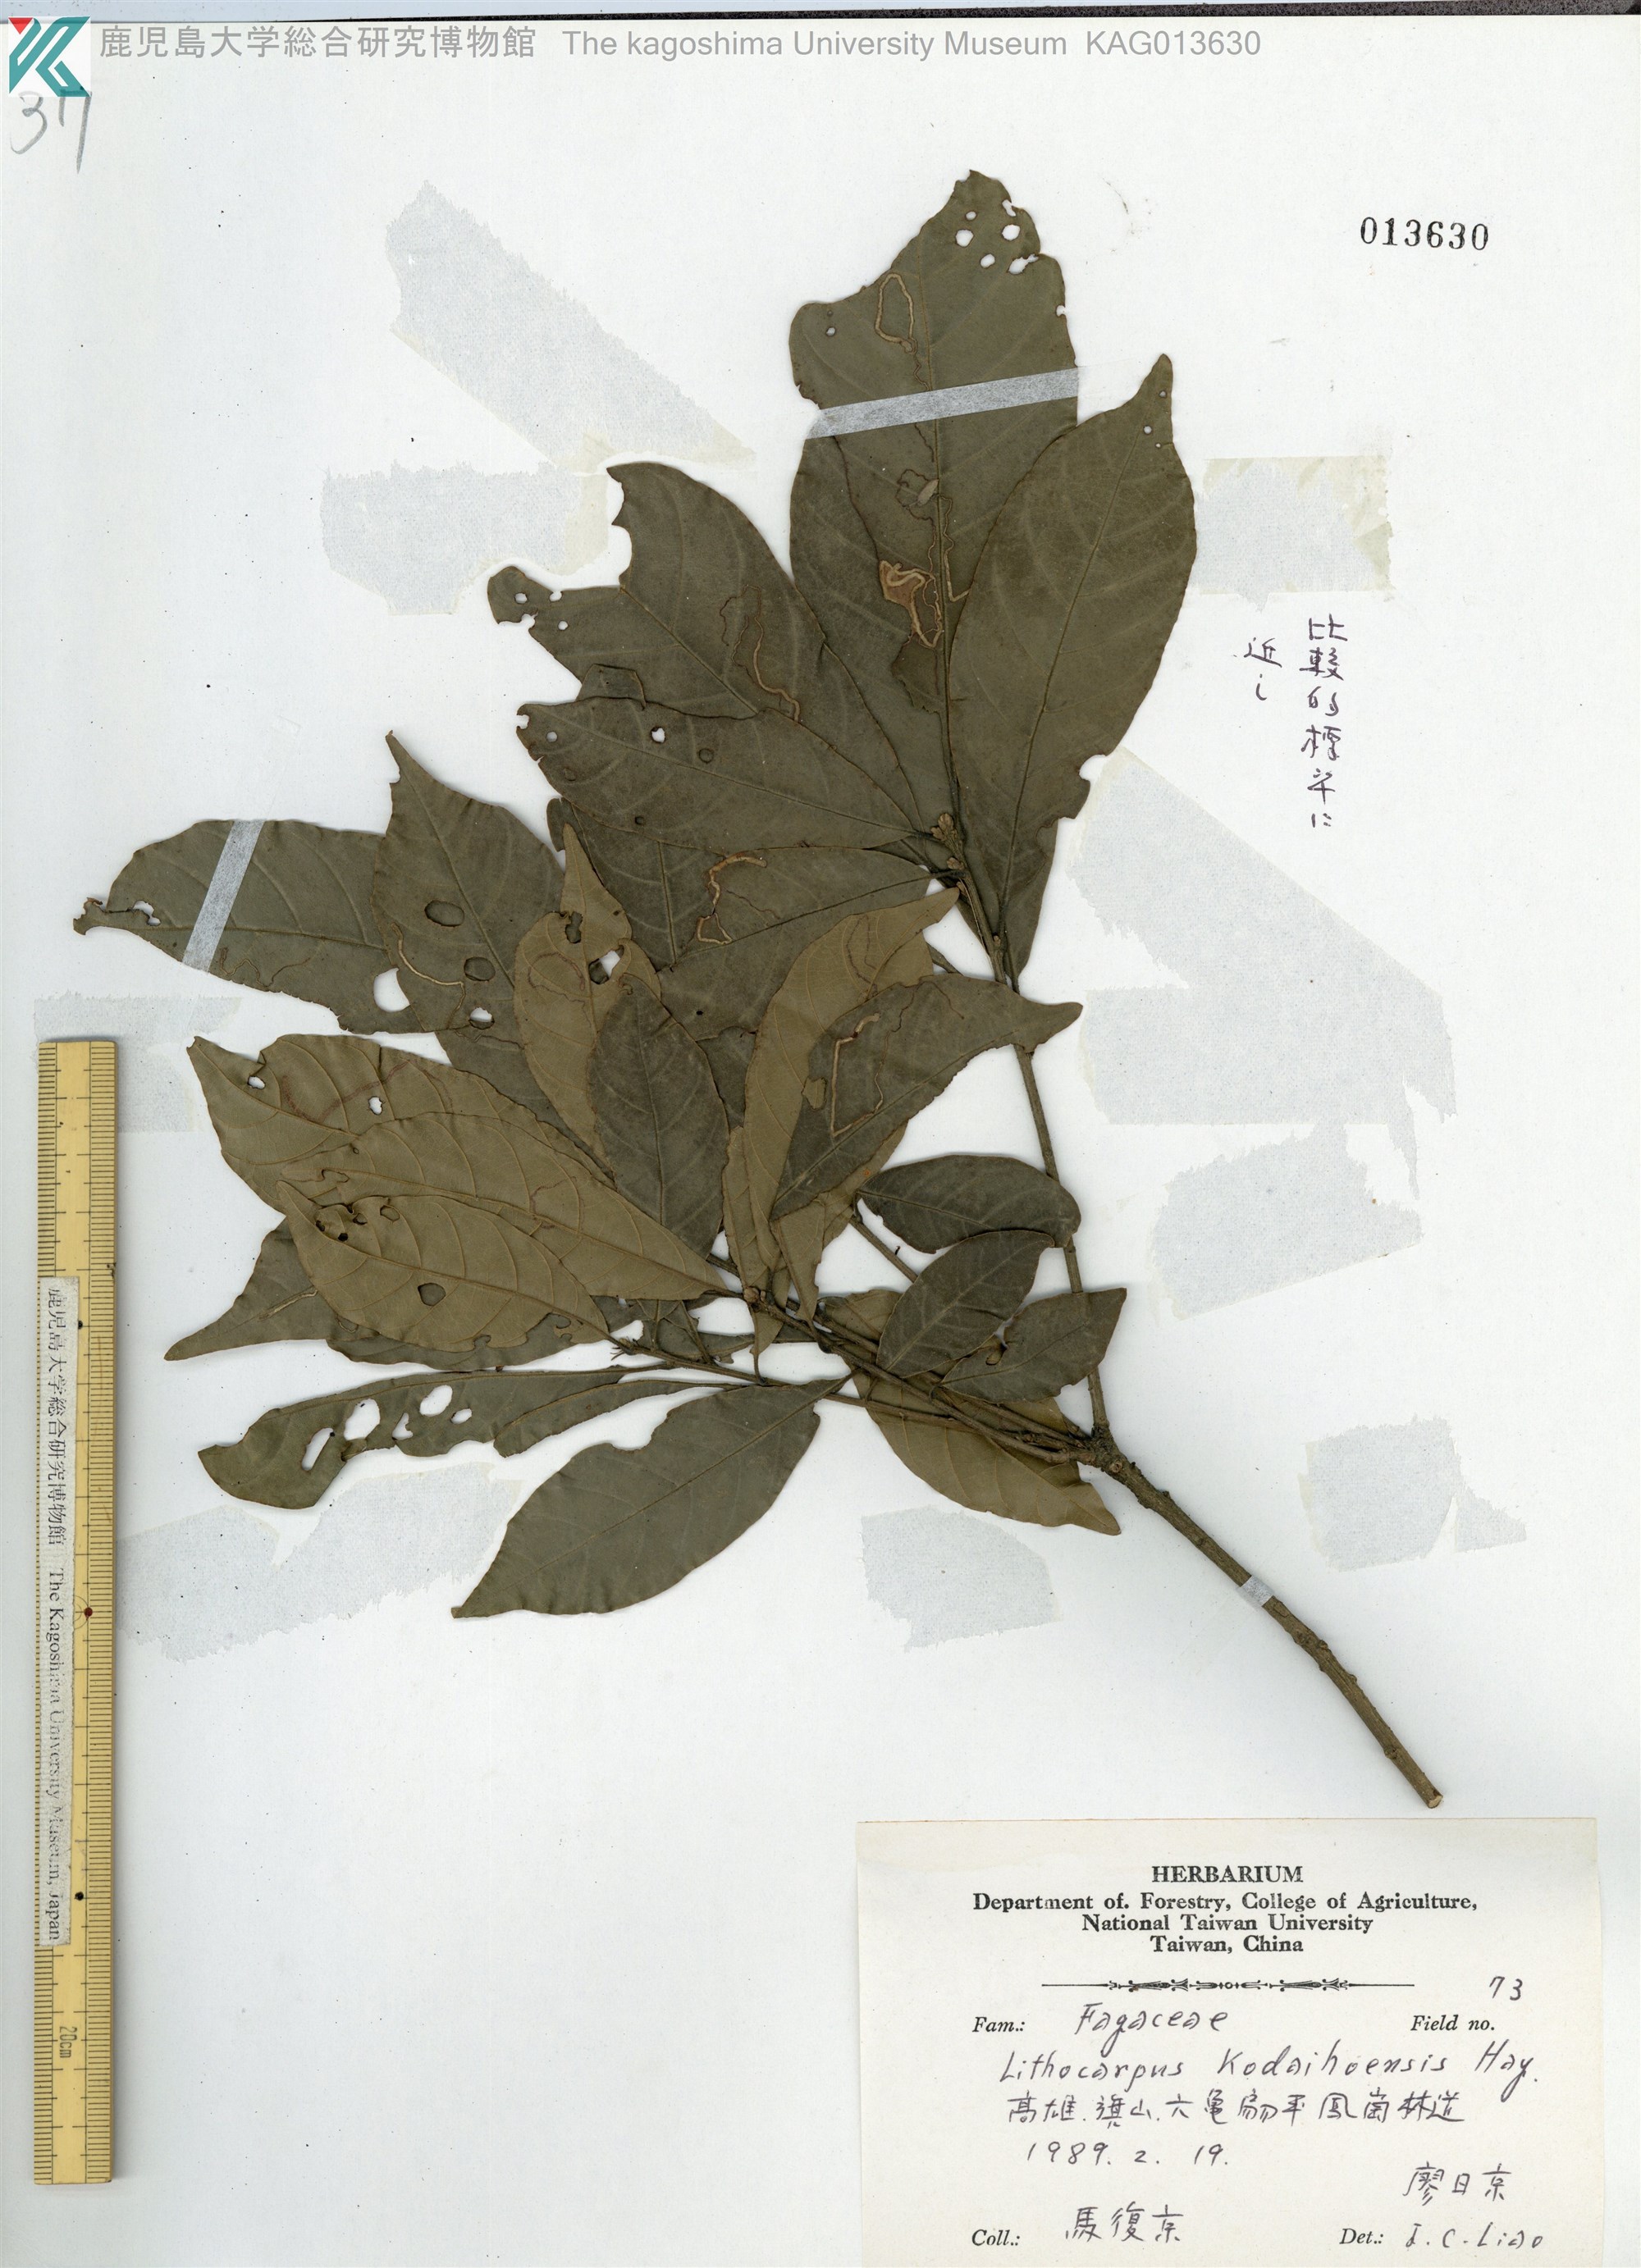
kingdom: Plantae
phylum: Tracheophyta
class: Magnoliopsida
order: Fagales
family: Fagaceae
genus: Lithocarpus
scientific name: Lithocarpus corneus
